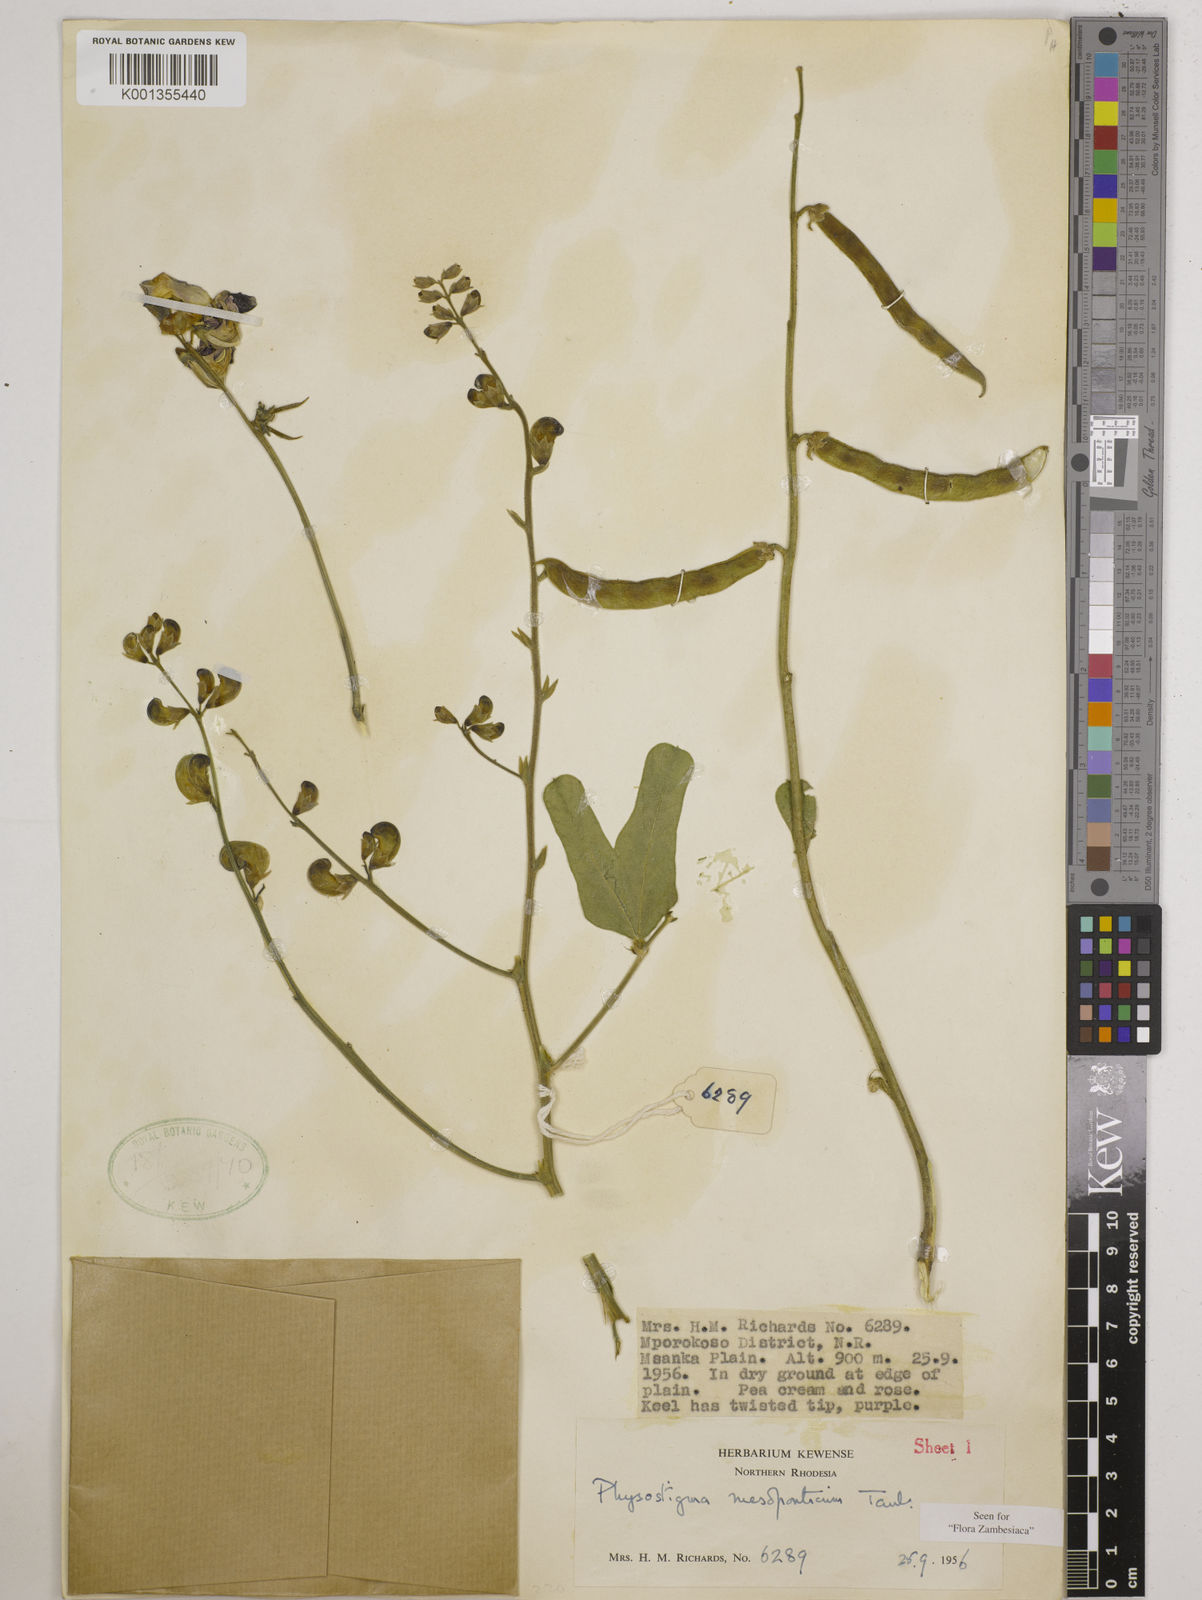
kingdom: Plantae
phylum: Tracheophyta
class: Magnoliopsida
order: Fabales
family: Fabaceae
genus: Physostigma
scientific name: Physostigma mesoponticum
